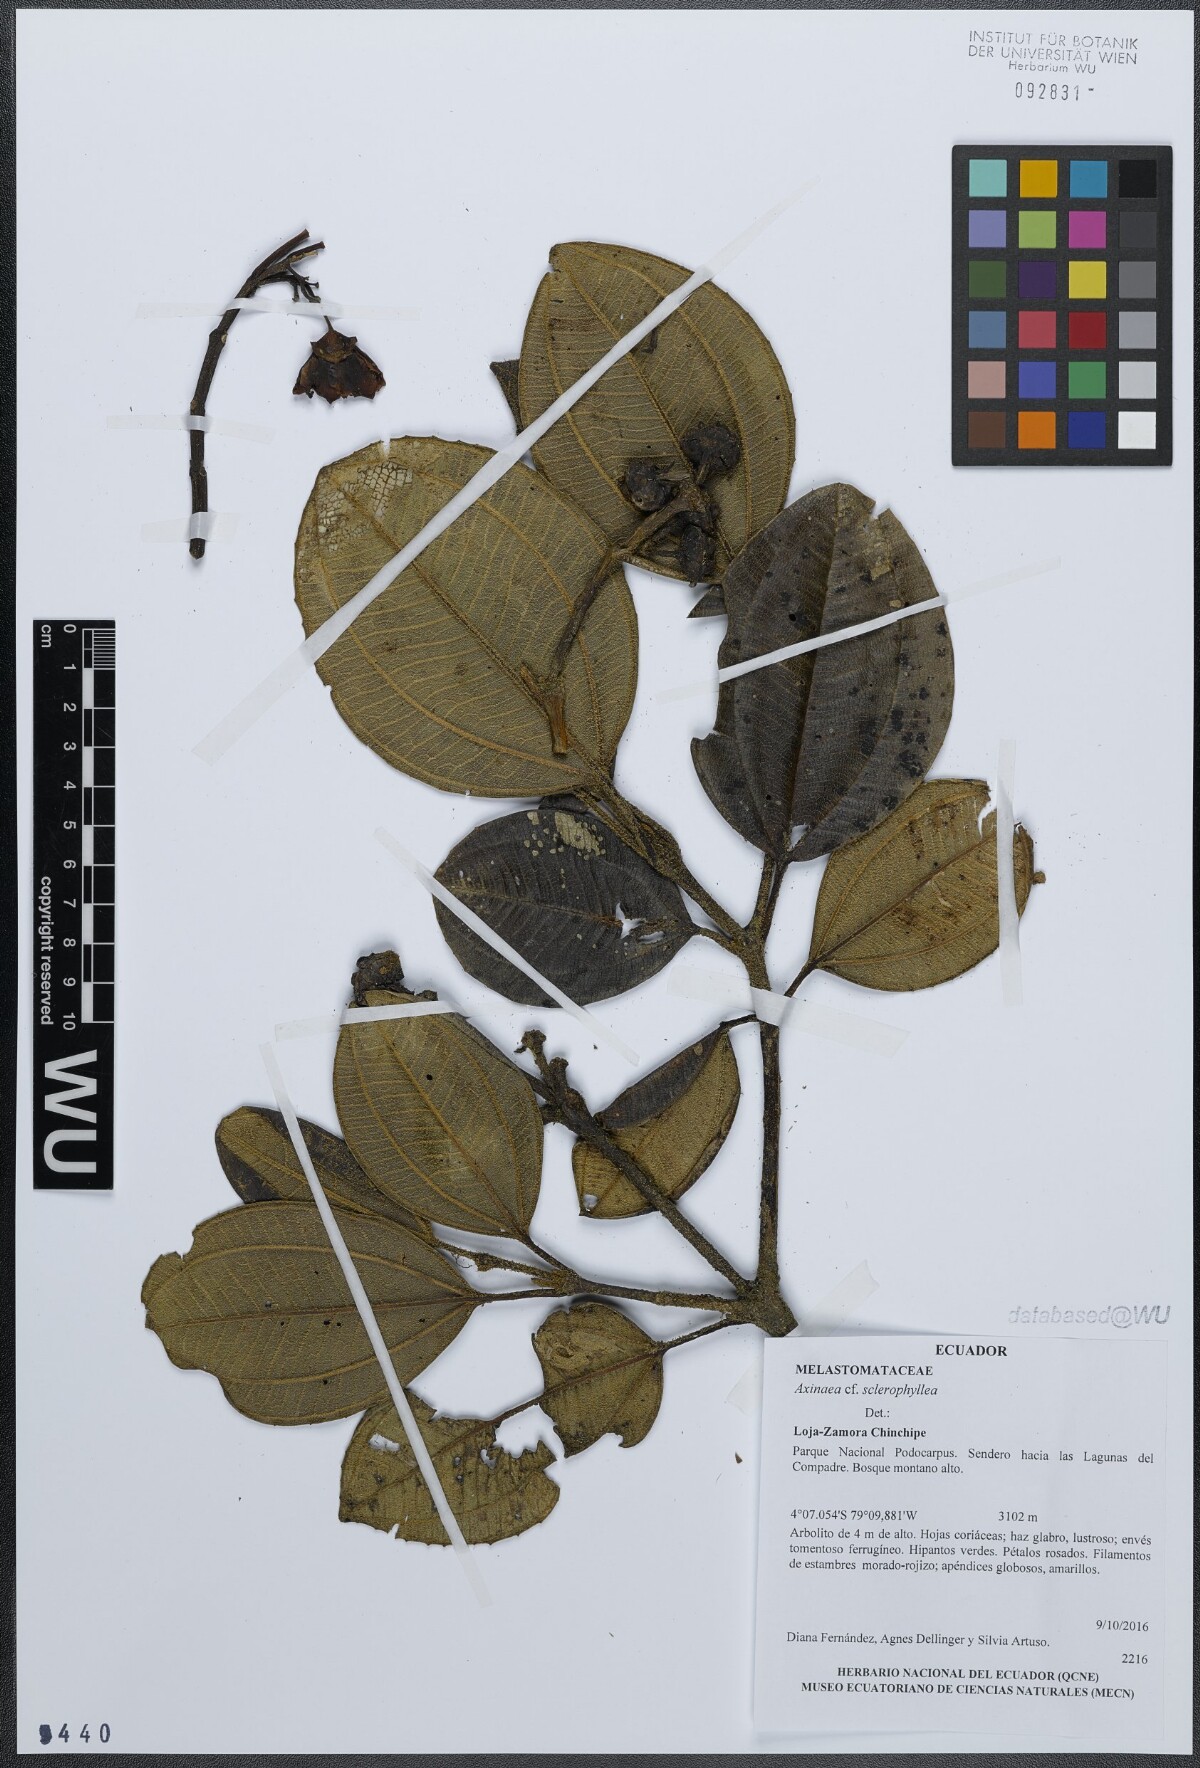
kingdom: Plantae
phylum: Tracheophyta
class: Magnoliopsida
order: Myrtales
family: Melastomataceae
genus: Axinaea
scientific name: Axinaea sclerophylla
